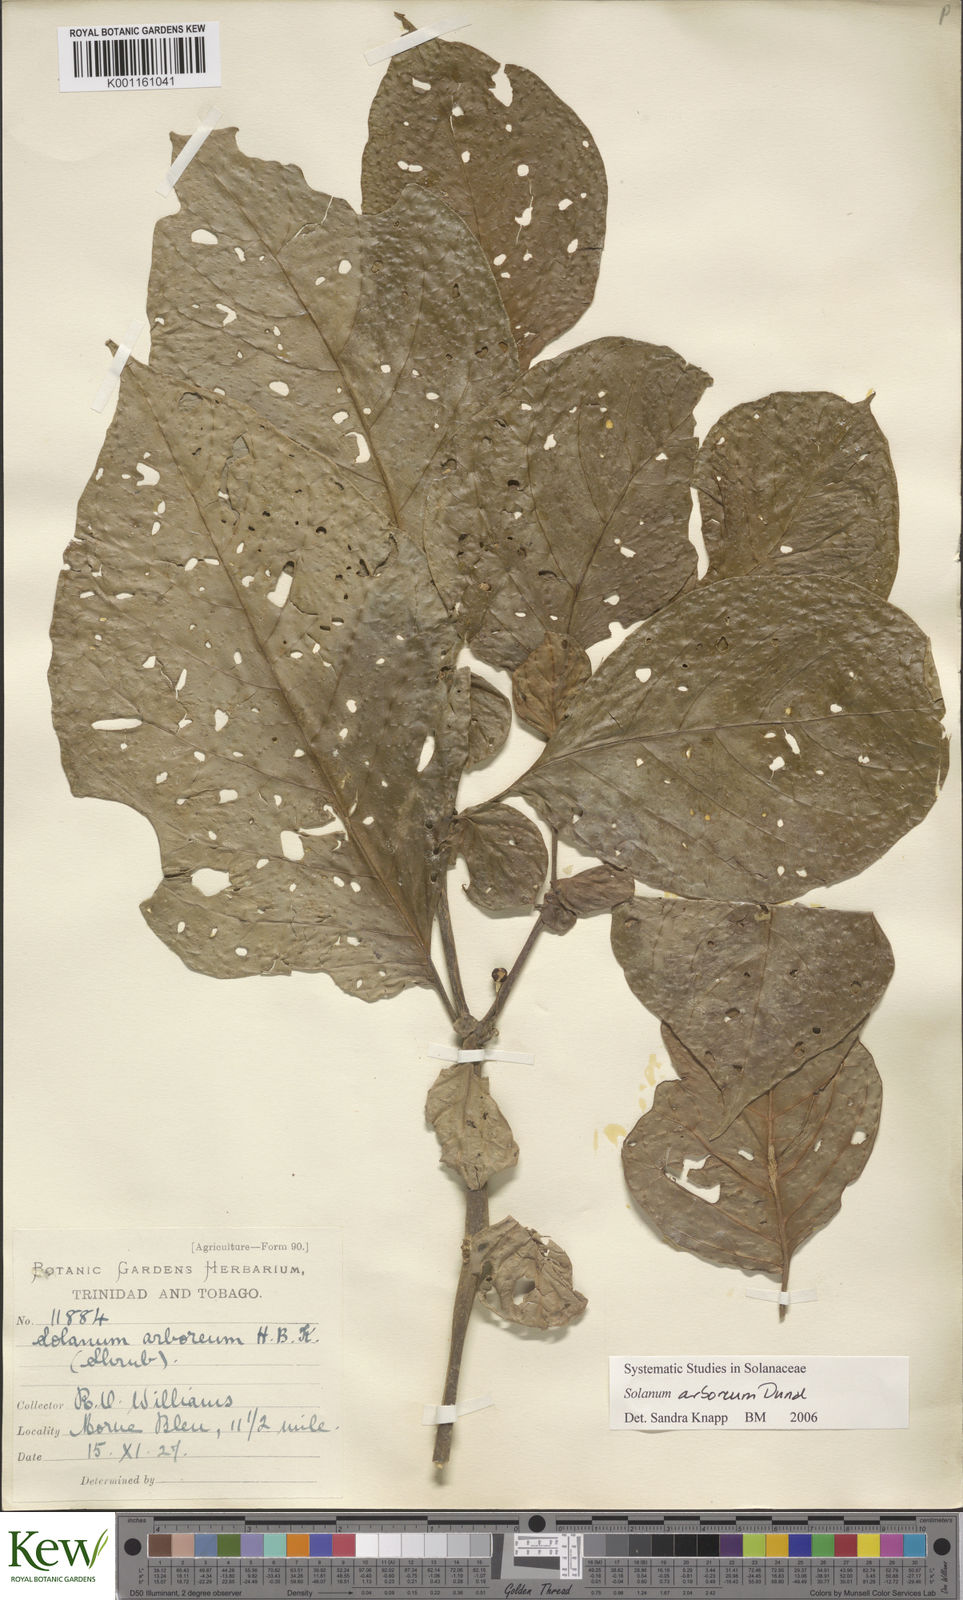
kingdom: Plantae
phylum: Tracheophyta
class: Magnoliopsida
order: Solanales
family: Solanaceae
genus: Solanum
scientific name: Solanum arboreum
